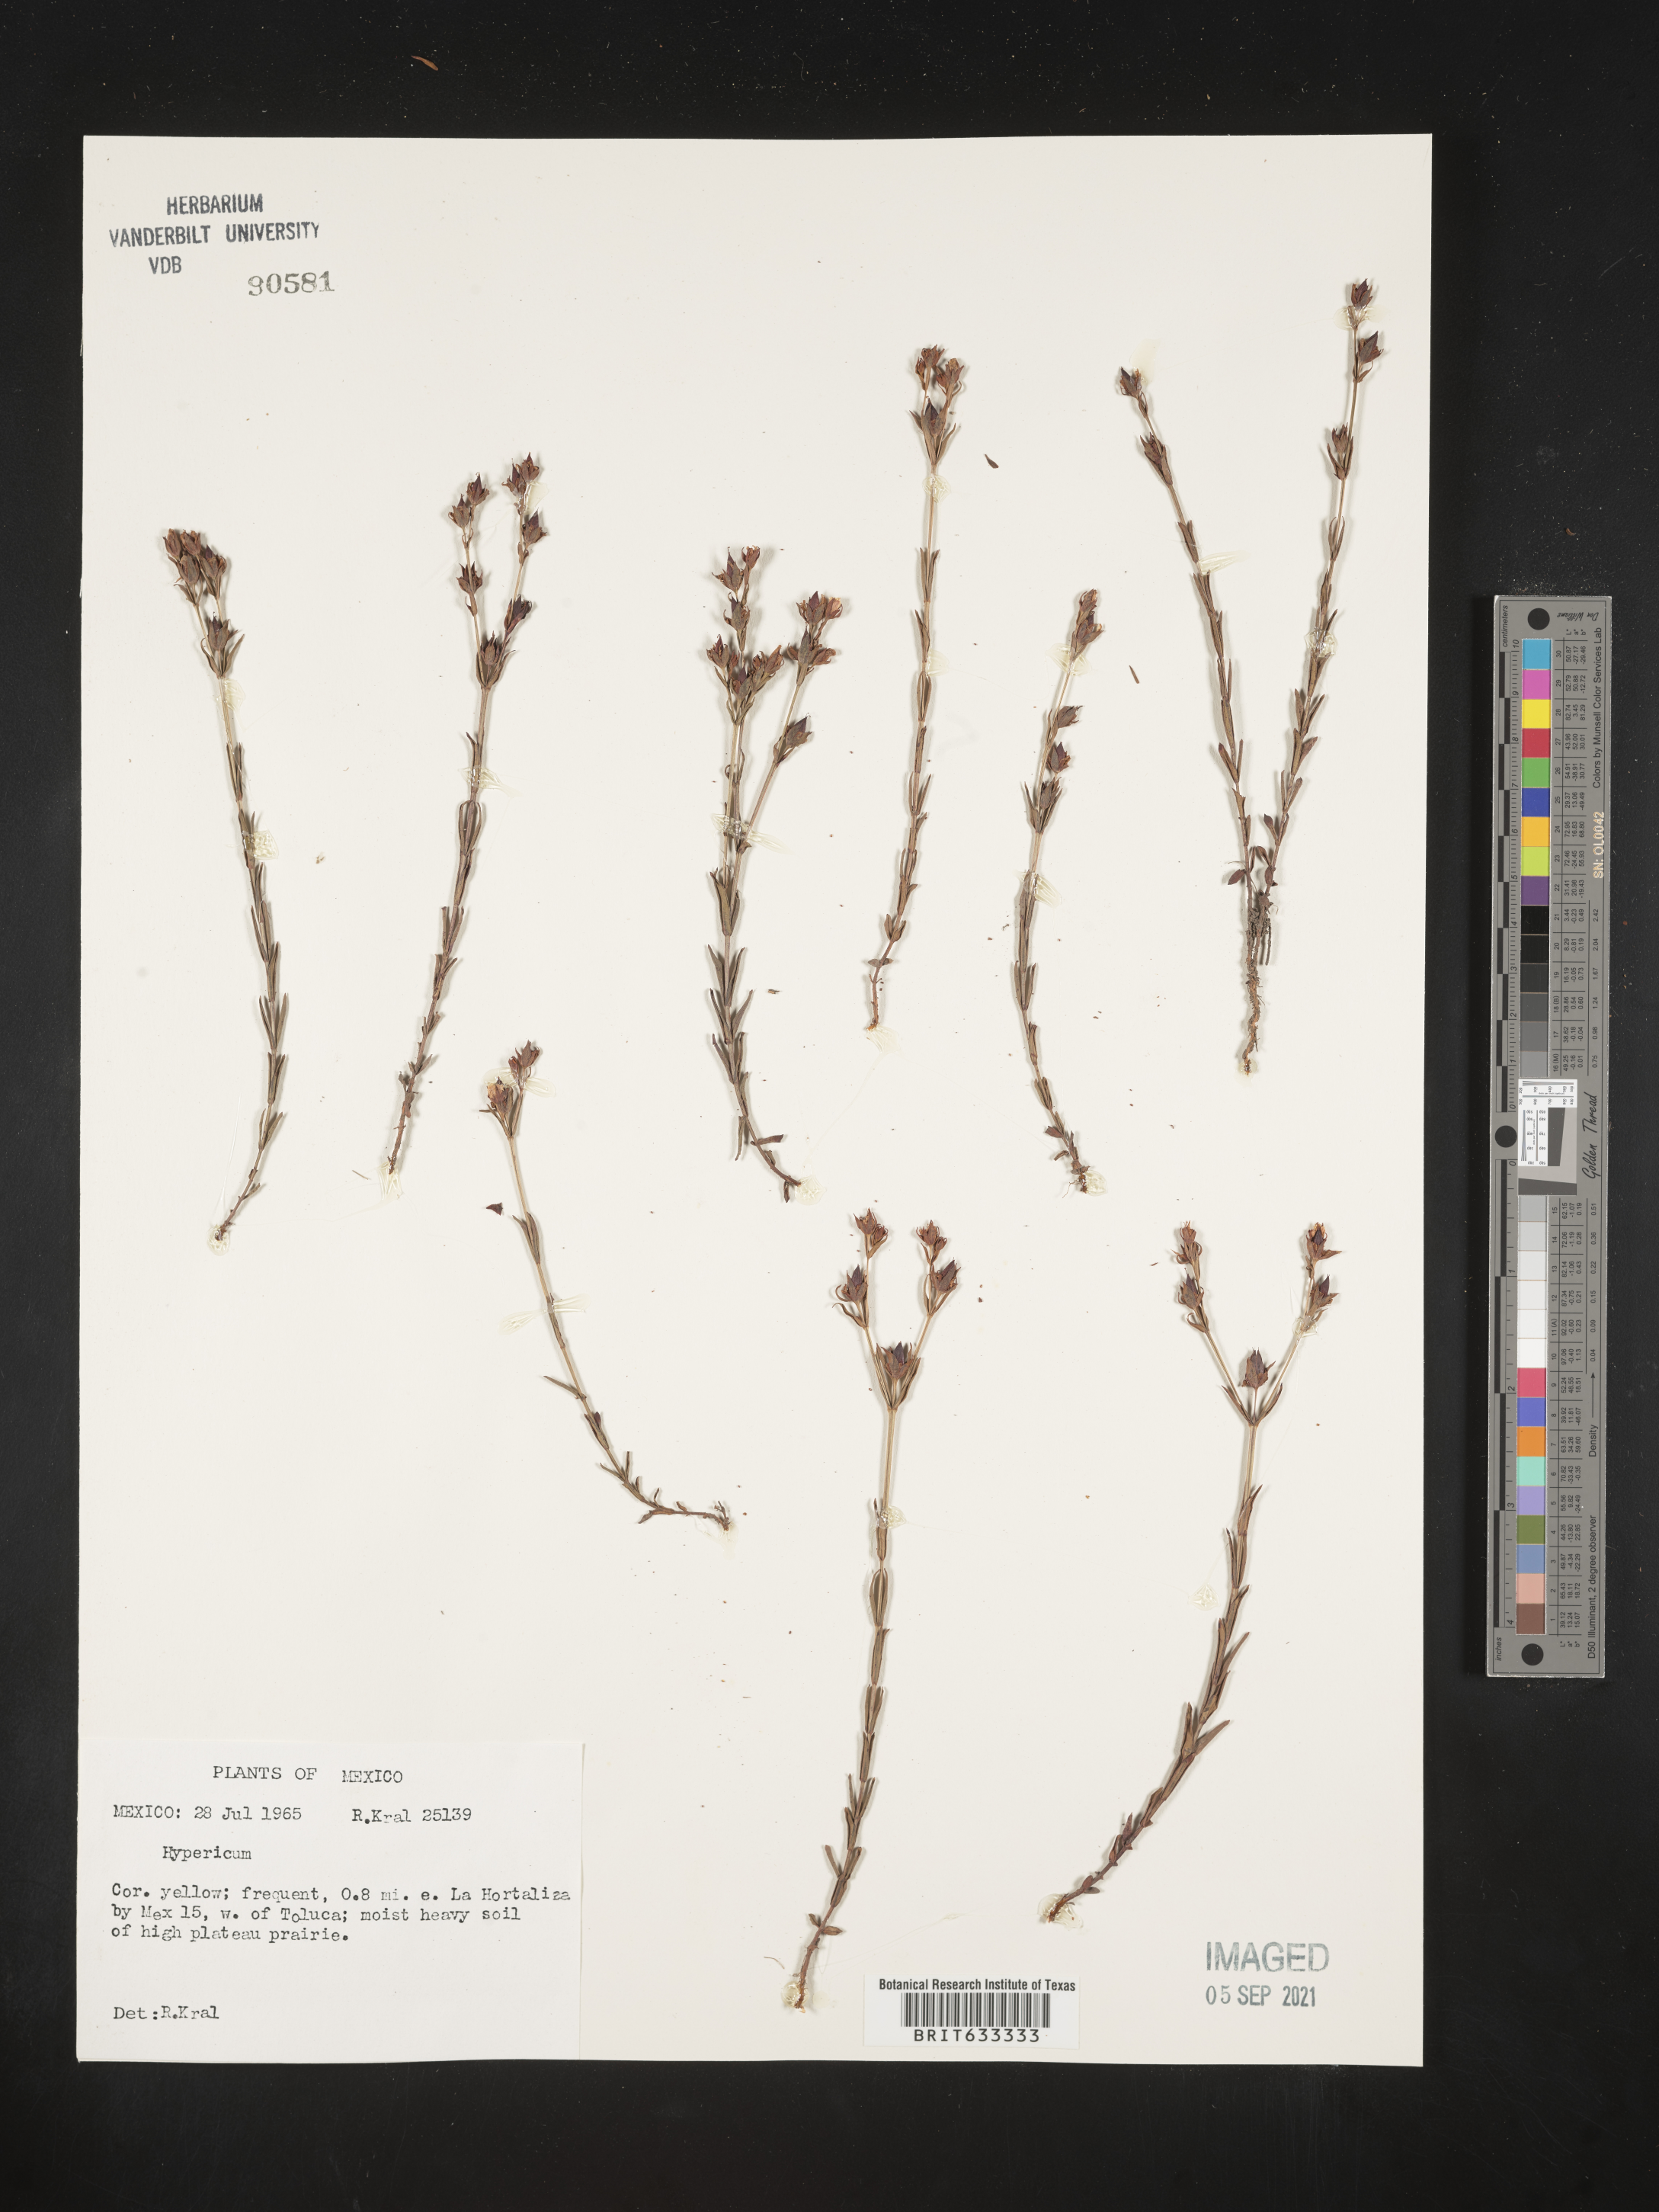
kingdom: Plantae
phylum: Tracheophyta
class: Magnoliopsida
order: Malpighiales
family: Hypericaceae
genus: Hypericum
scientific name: Hypericum
